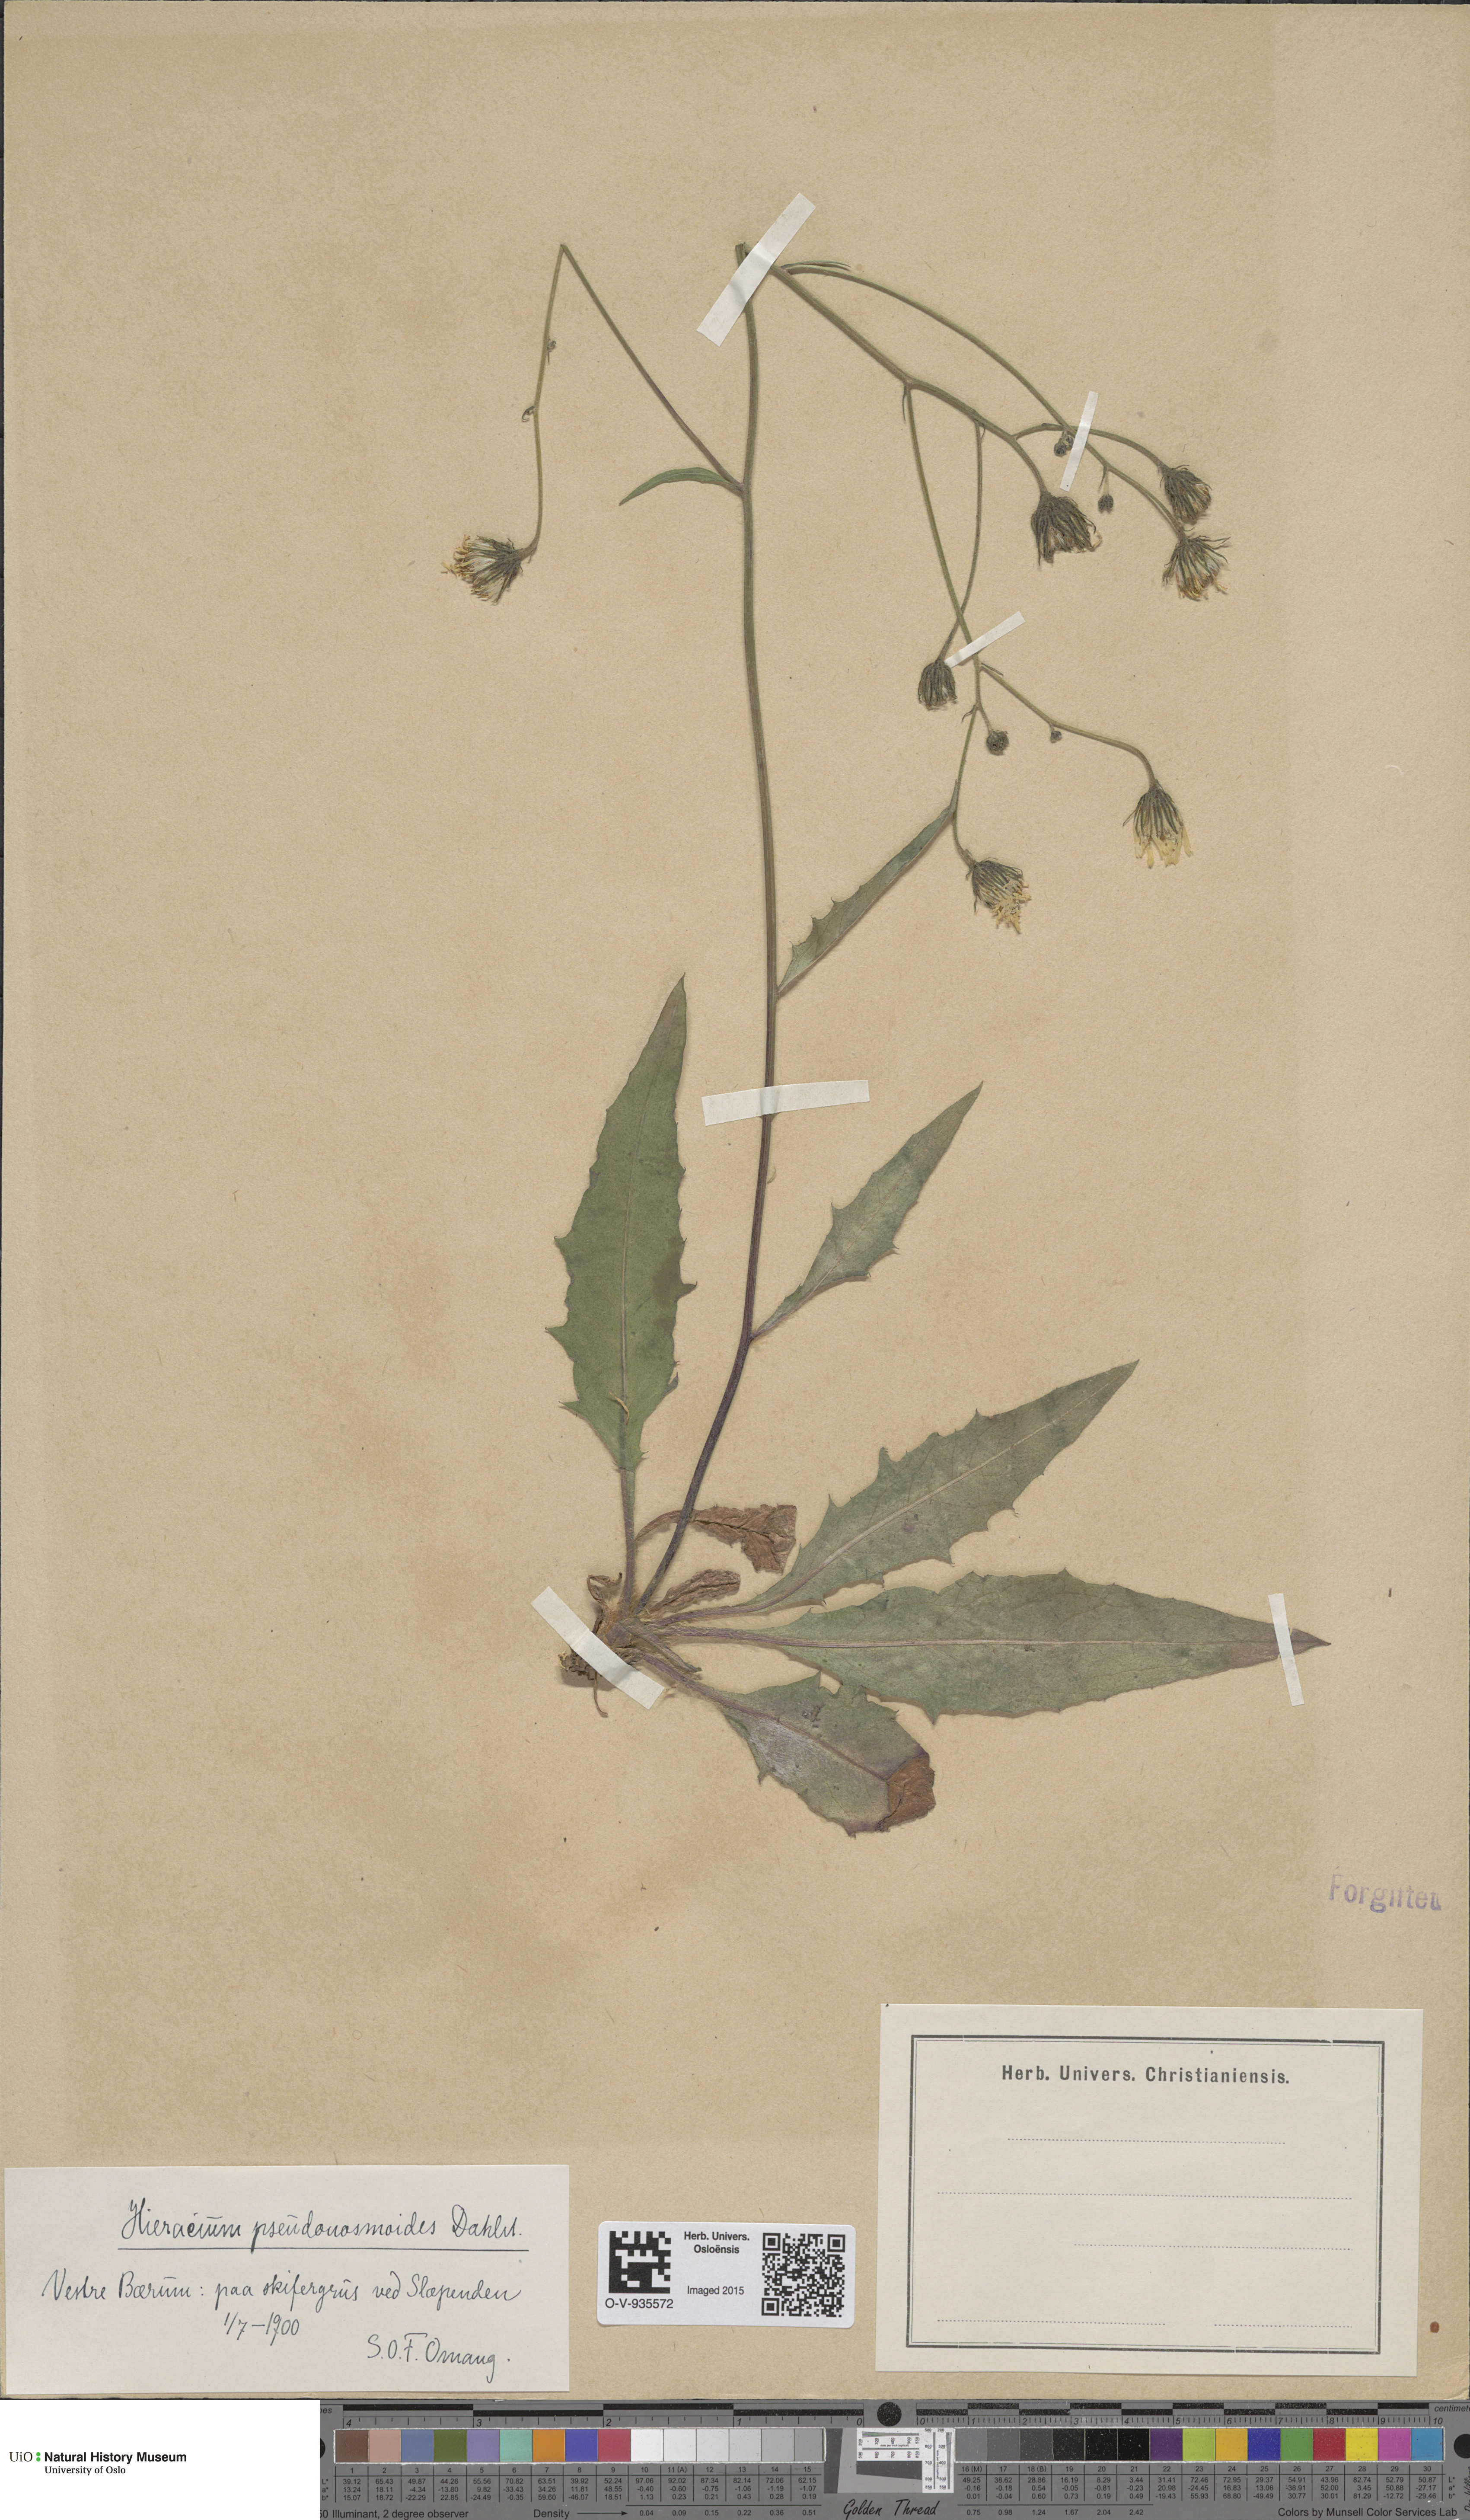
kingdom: Plantae
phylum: Tracheophyta
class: Magnoliopsida
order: Asterales
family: Asteraceae
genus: Hieracium
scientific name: Hieracium saxifragum
